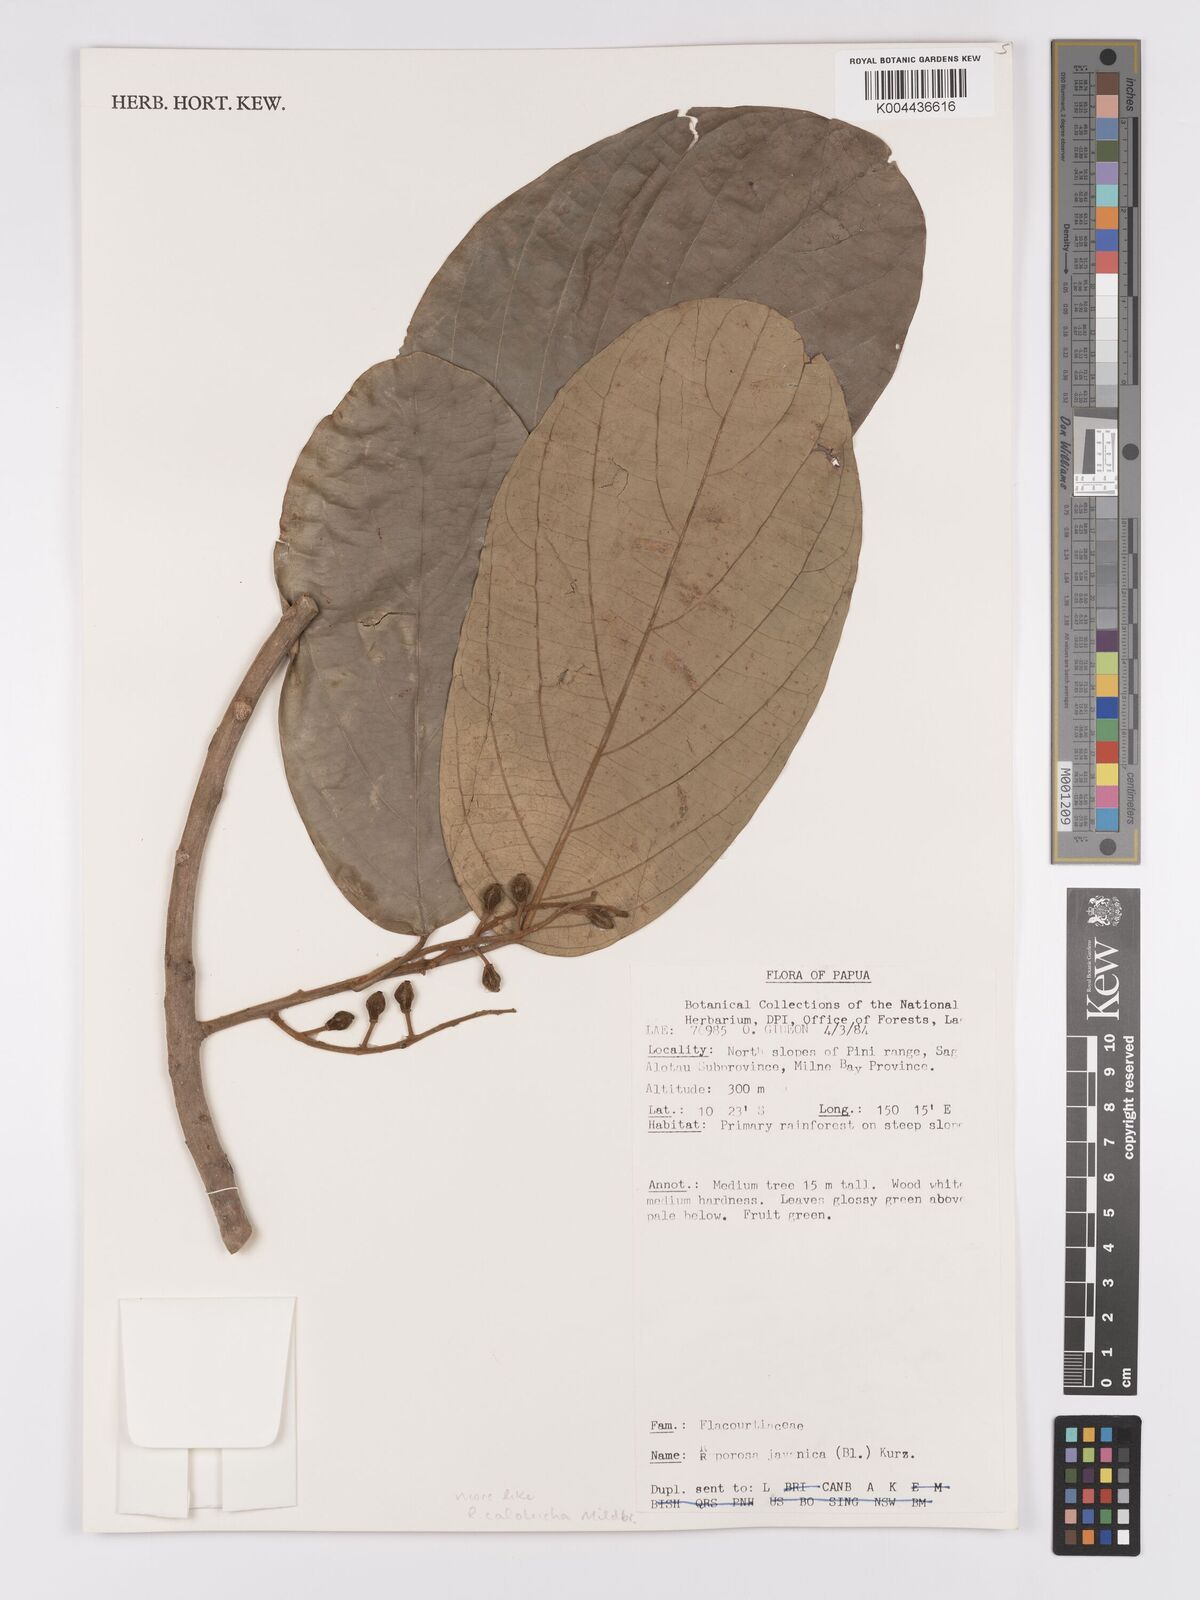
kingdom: Plantae
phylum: Tracheophyta
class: Magnoliopsida
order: Malpighiales
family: Achariaceae
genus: Ryparosa
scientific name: Ryparosa calotricha
